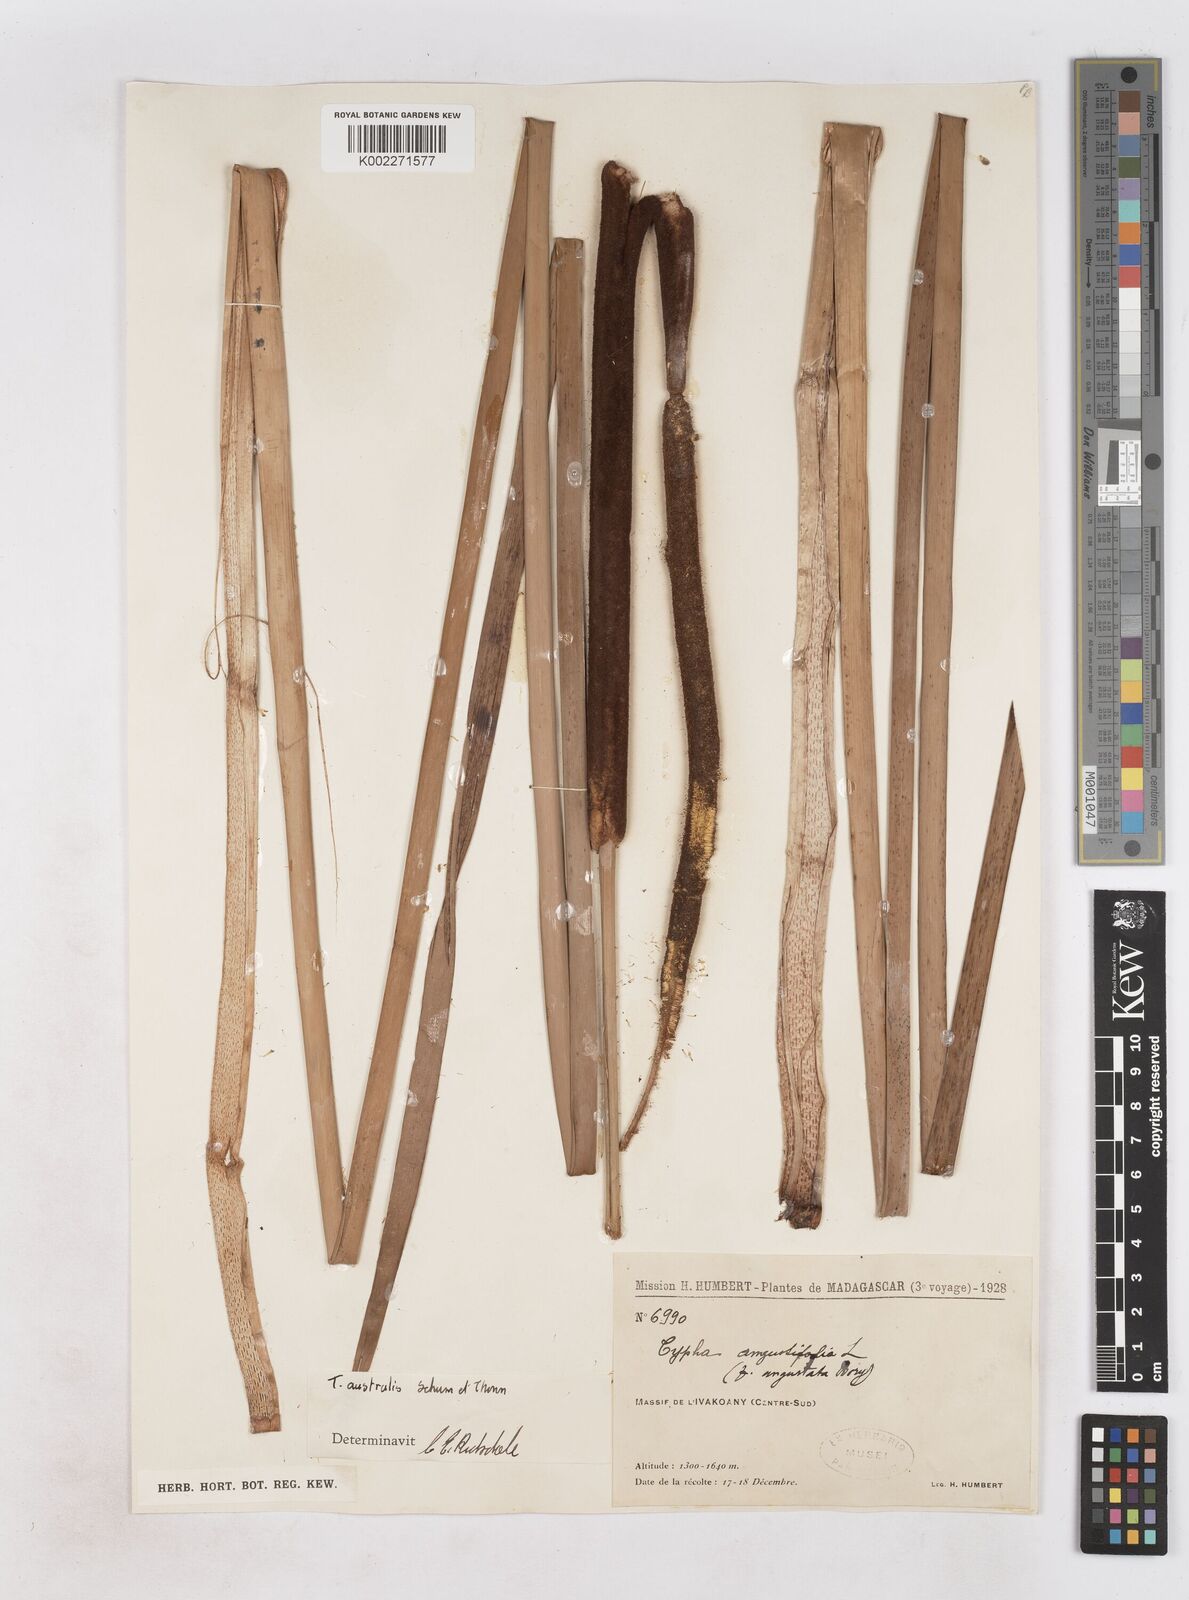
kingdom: Plantae
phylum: Tracheophyta
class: Liliopsida
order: Poales
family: Typhaceae
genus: Typha
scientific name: Typha domingensis
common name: Southern cattail
